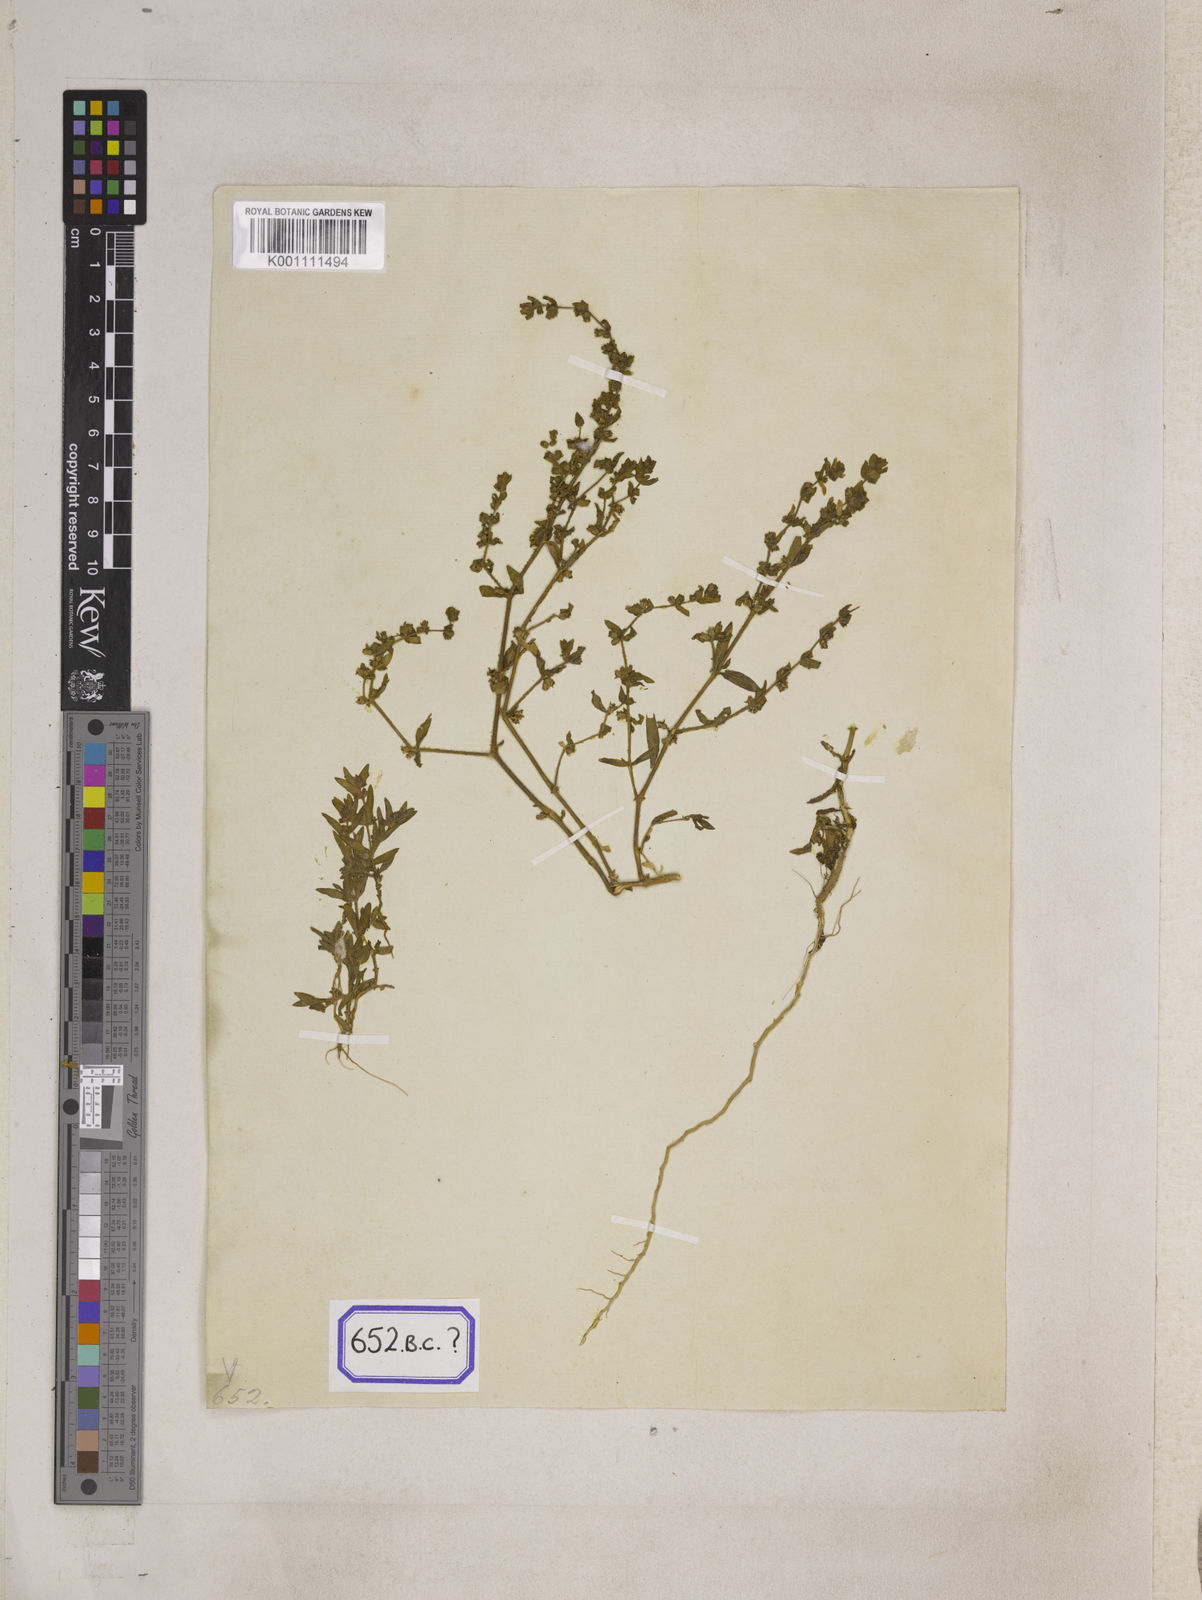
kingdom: Plantae
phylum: Tracheophyta
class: Magnoliopsida
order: Caryophyllales
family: Molluginaceae
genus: Mollugo
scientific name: Mollugo disticha
